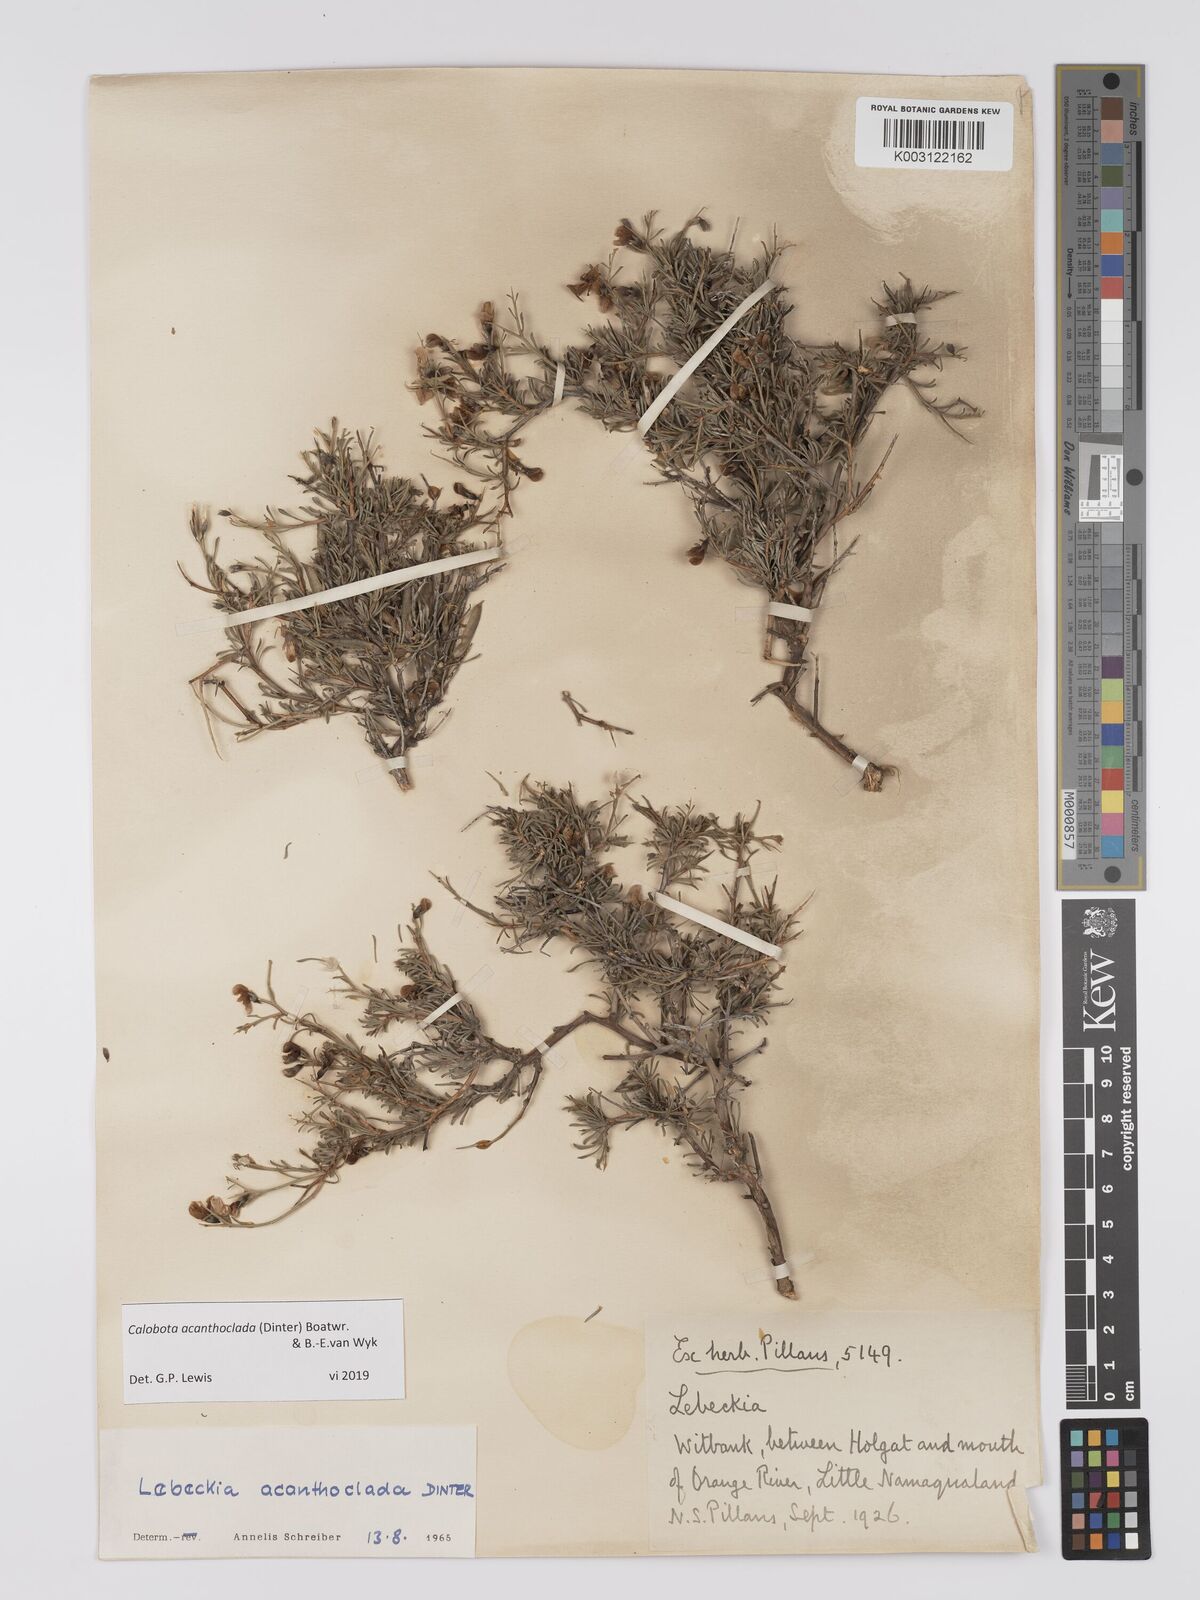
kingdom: Plantae
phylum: Tracheophyta
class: Magnoliopsida
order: Fabales
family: Fabaceae
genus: Calobota
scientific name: Calobota acanthoclada
